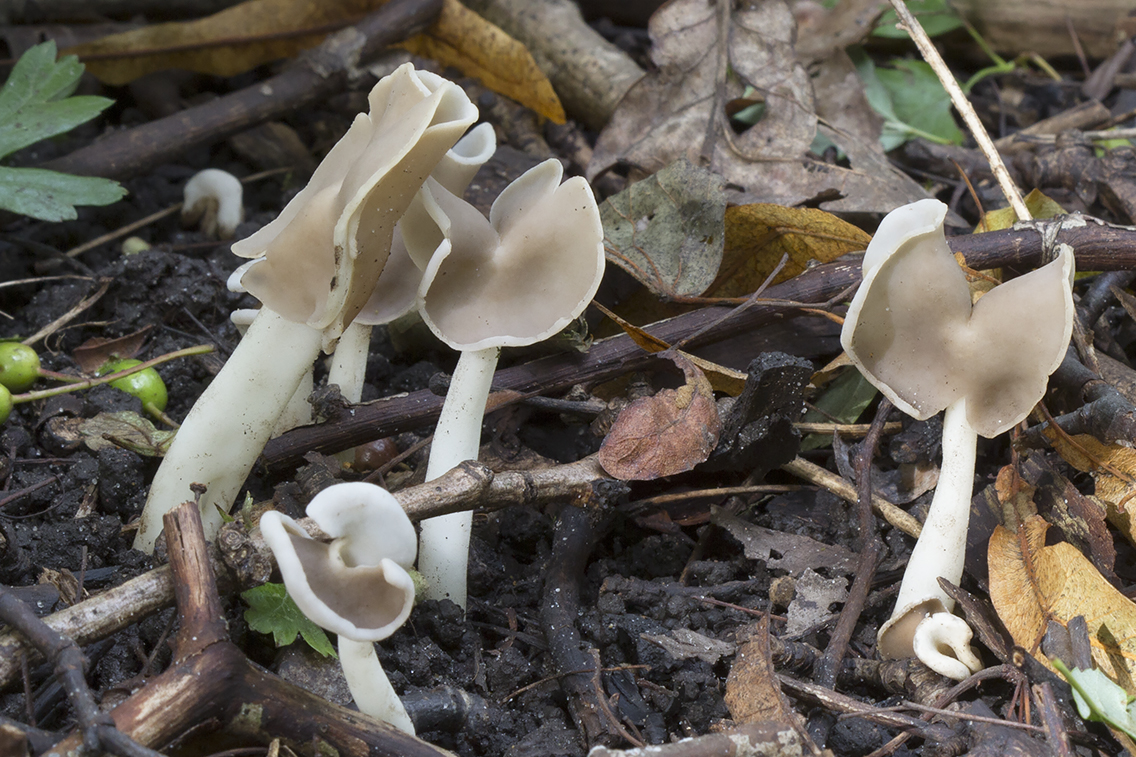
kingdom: Fungi
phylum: Ascomycota
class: Pezizomycetes
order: Pezizales
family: Helvellaceae
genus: Helvella
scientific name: Helvella levis
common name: bredsporet foldhat
